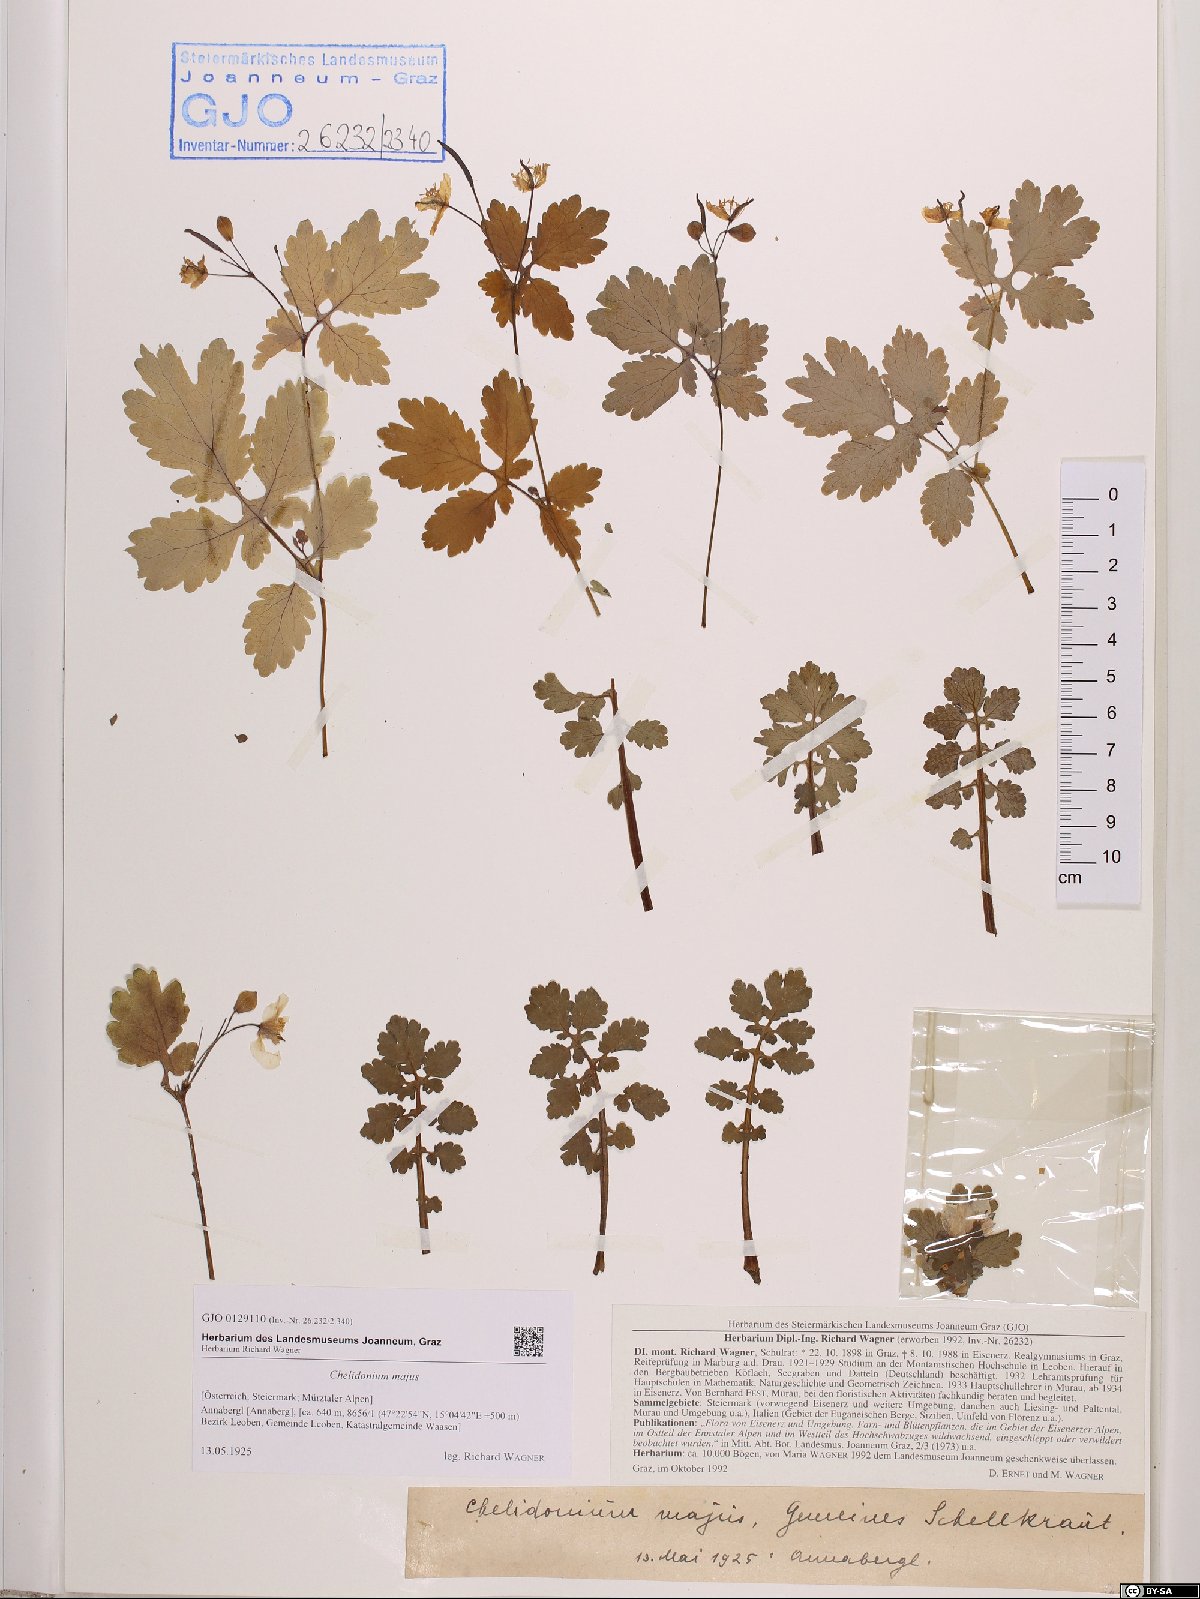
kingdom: Plantae
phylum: Tracheophyta
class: Magnoliopsida
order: Ranunculales
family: Papaveraceae
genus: Chelidonium
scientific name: Chelidonium majus
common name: Greater celandine
